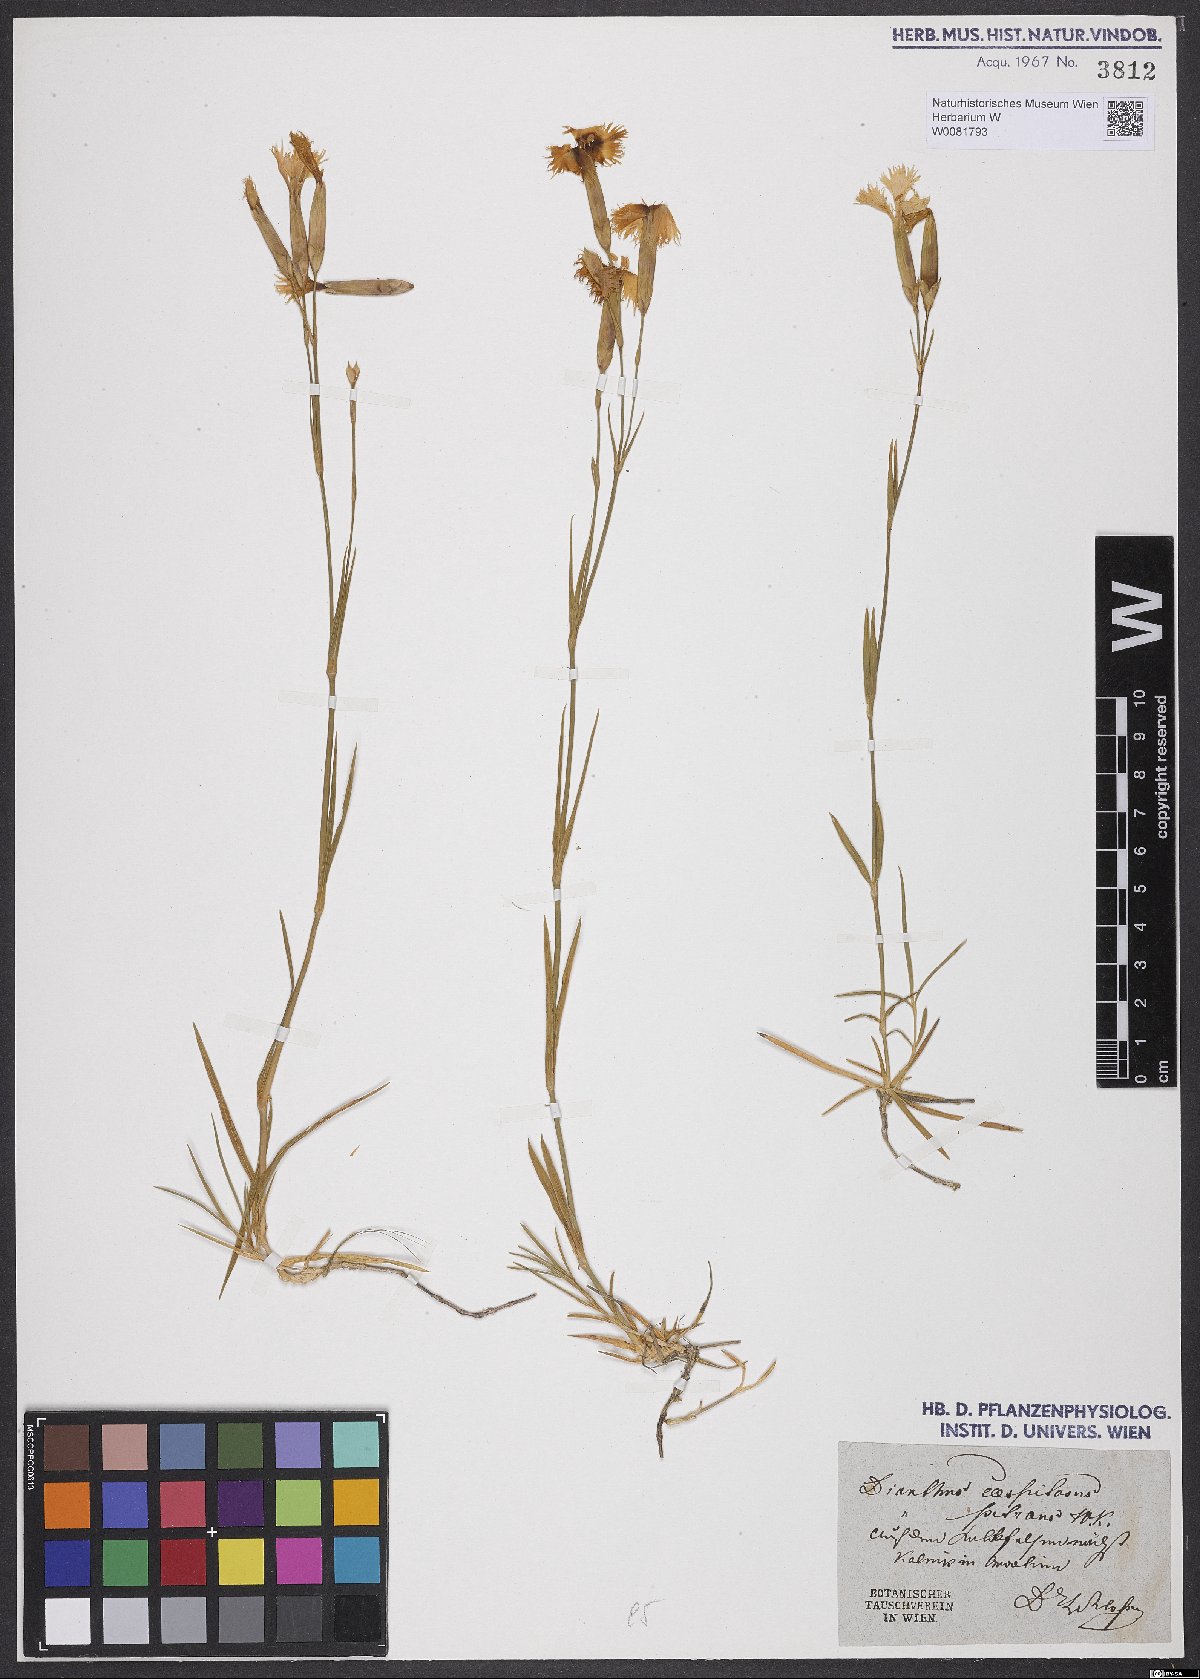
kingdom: Plantae
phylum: Tracheophyta
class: Magnoliopsida
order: Caryophyllales
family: Caryophyllaceae
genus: Dianthus
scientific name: Dianthus caespitosus
